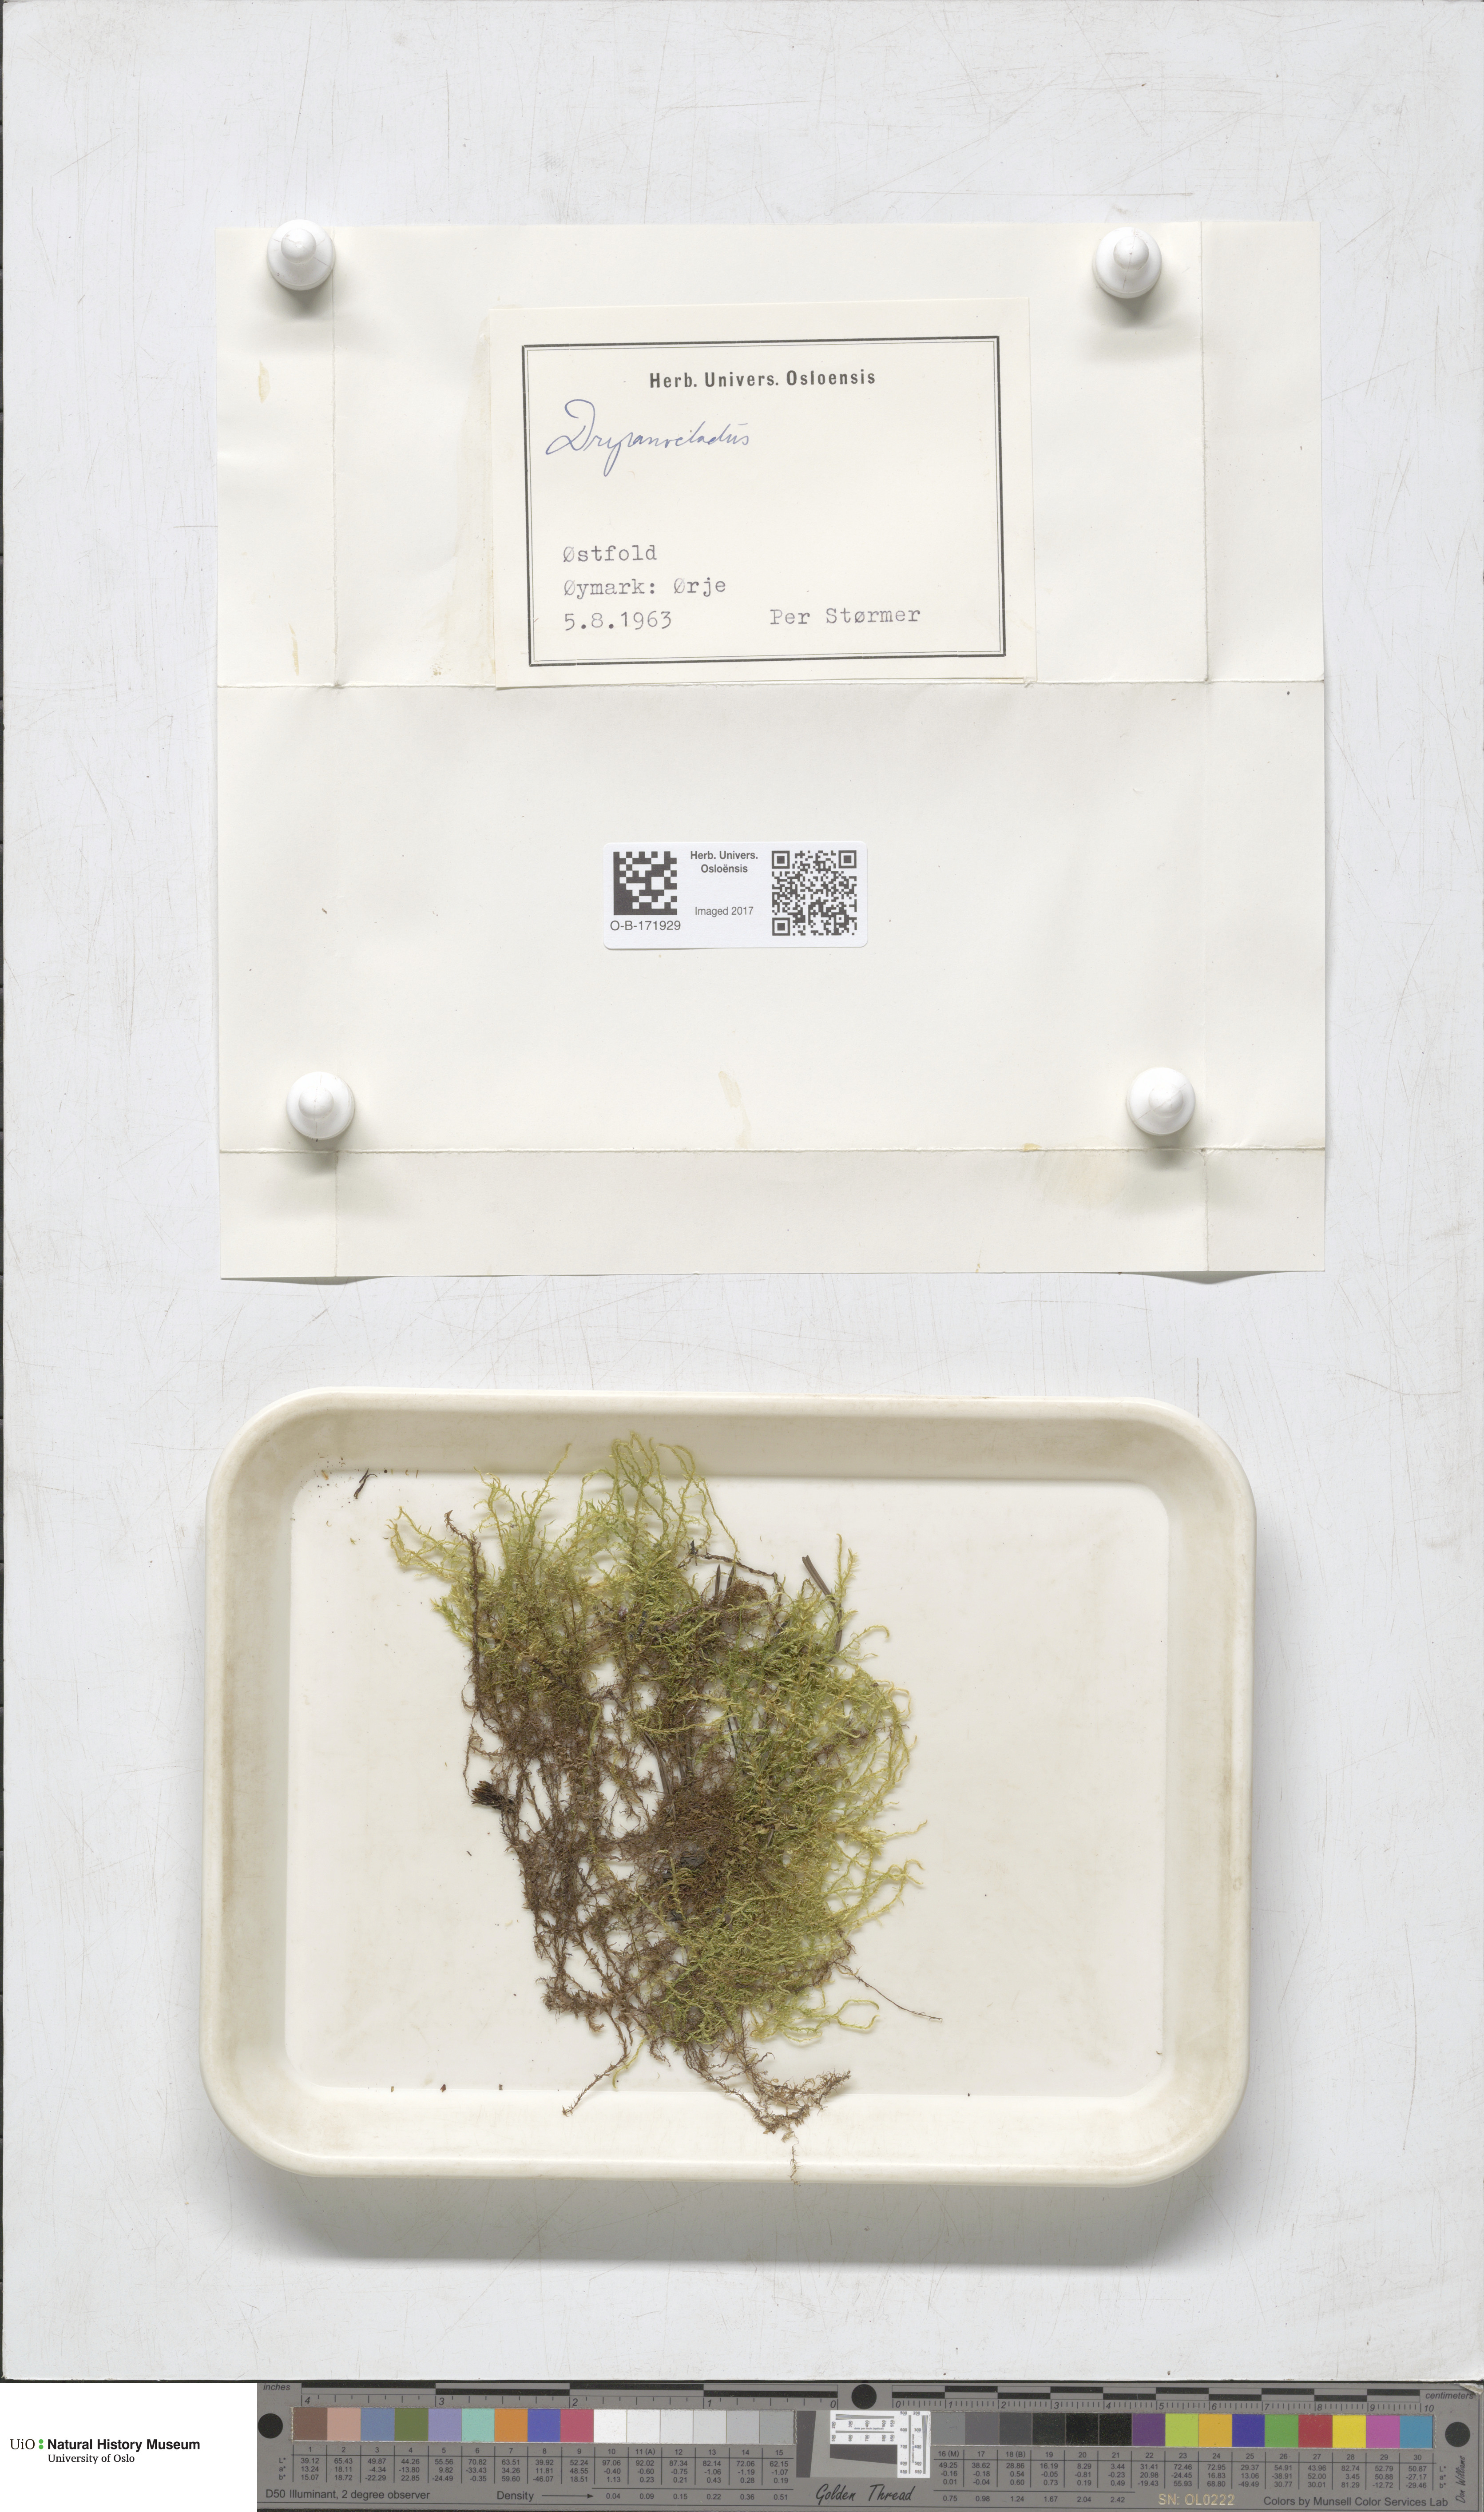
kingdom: Plantae
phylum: Bryophyta
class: Bryopsida
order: Hypnales
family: Amblystegiaceae
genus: Drepanocladus
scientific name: Drepanocladus
